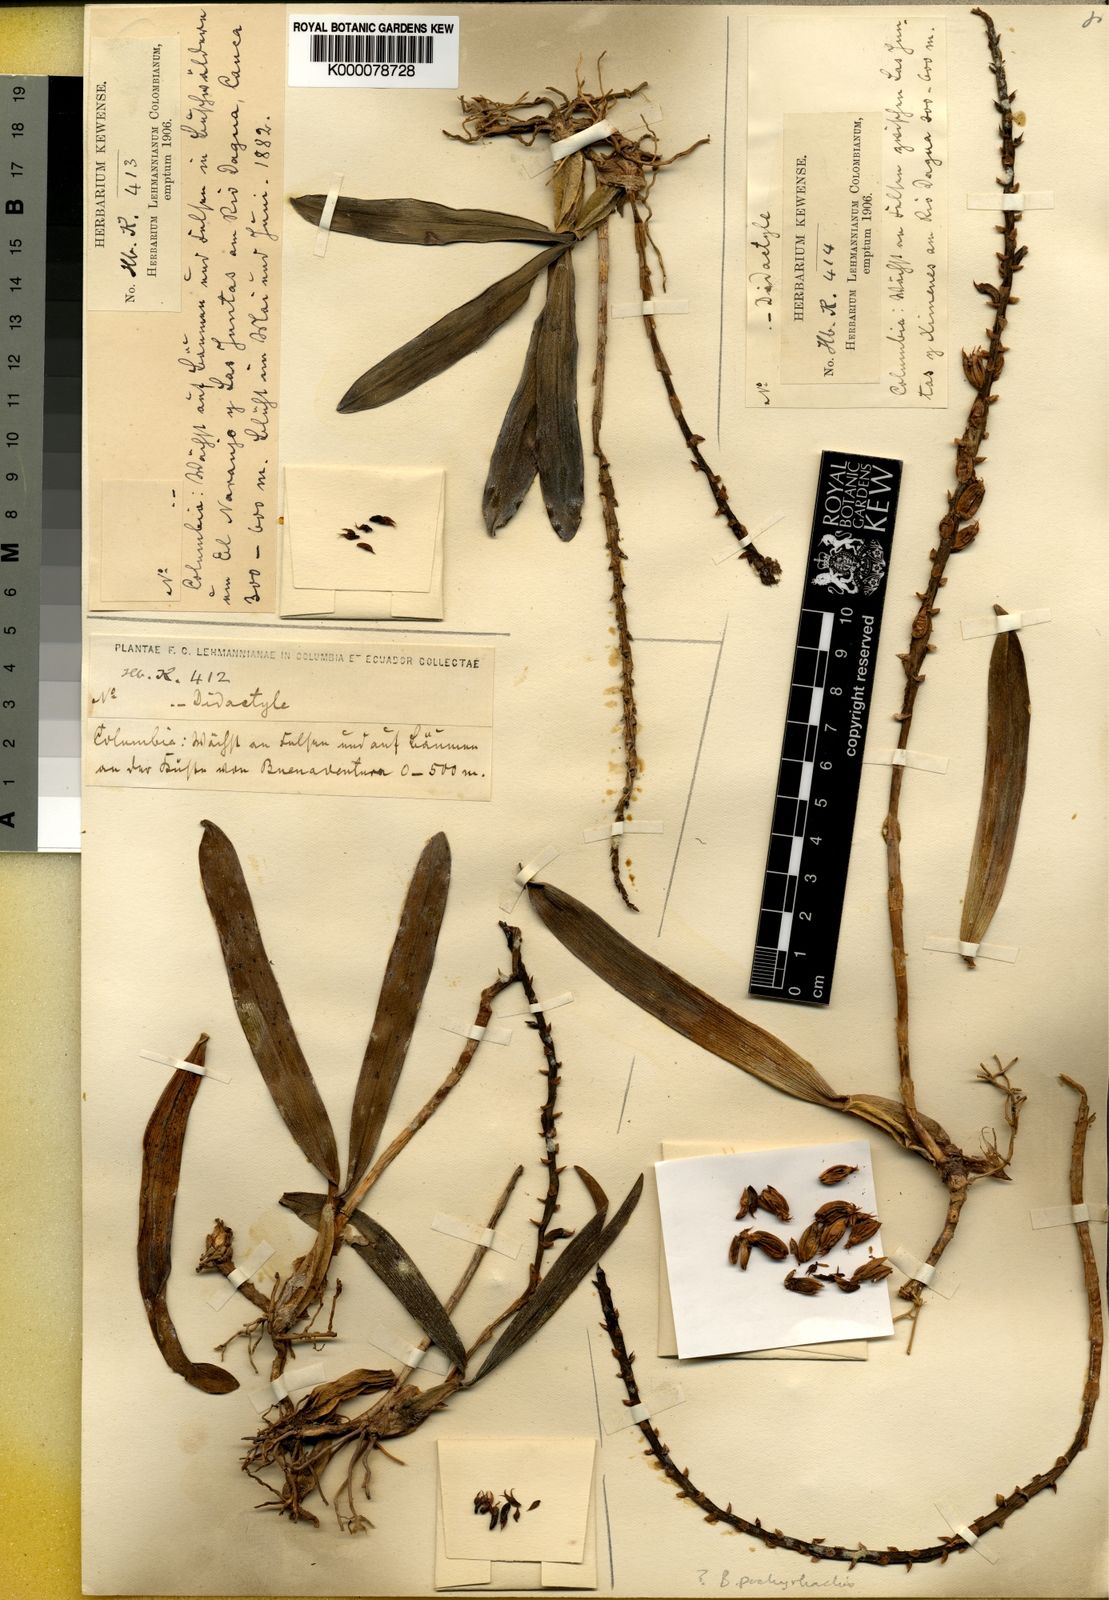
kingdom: Plantae
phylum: Tracheophyta
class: Liliopsida
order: Asparagales
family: Orchidaceae
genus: Bulbophyllum
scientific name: Bulbophyllum
